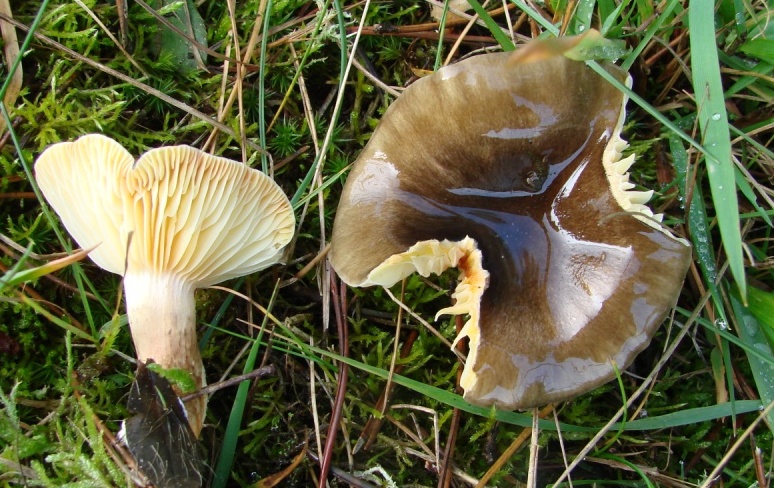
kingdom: Fungi
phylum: Basidiomycota
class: Agaricomycetes
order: Agaricales
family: Hygrophoraceae
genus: Hygrophorus
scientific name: Hygrophorus hypothejus
